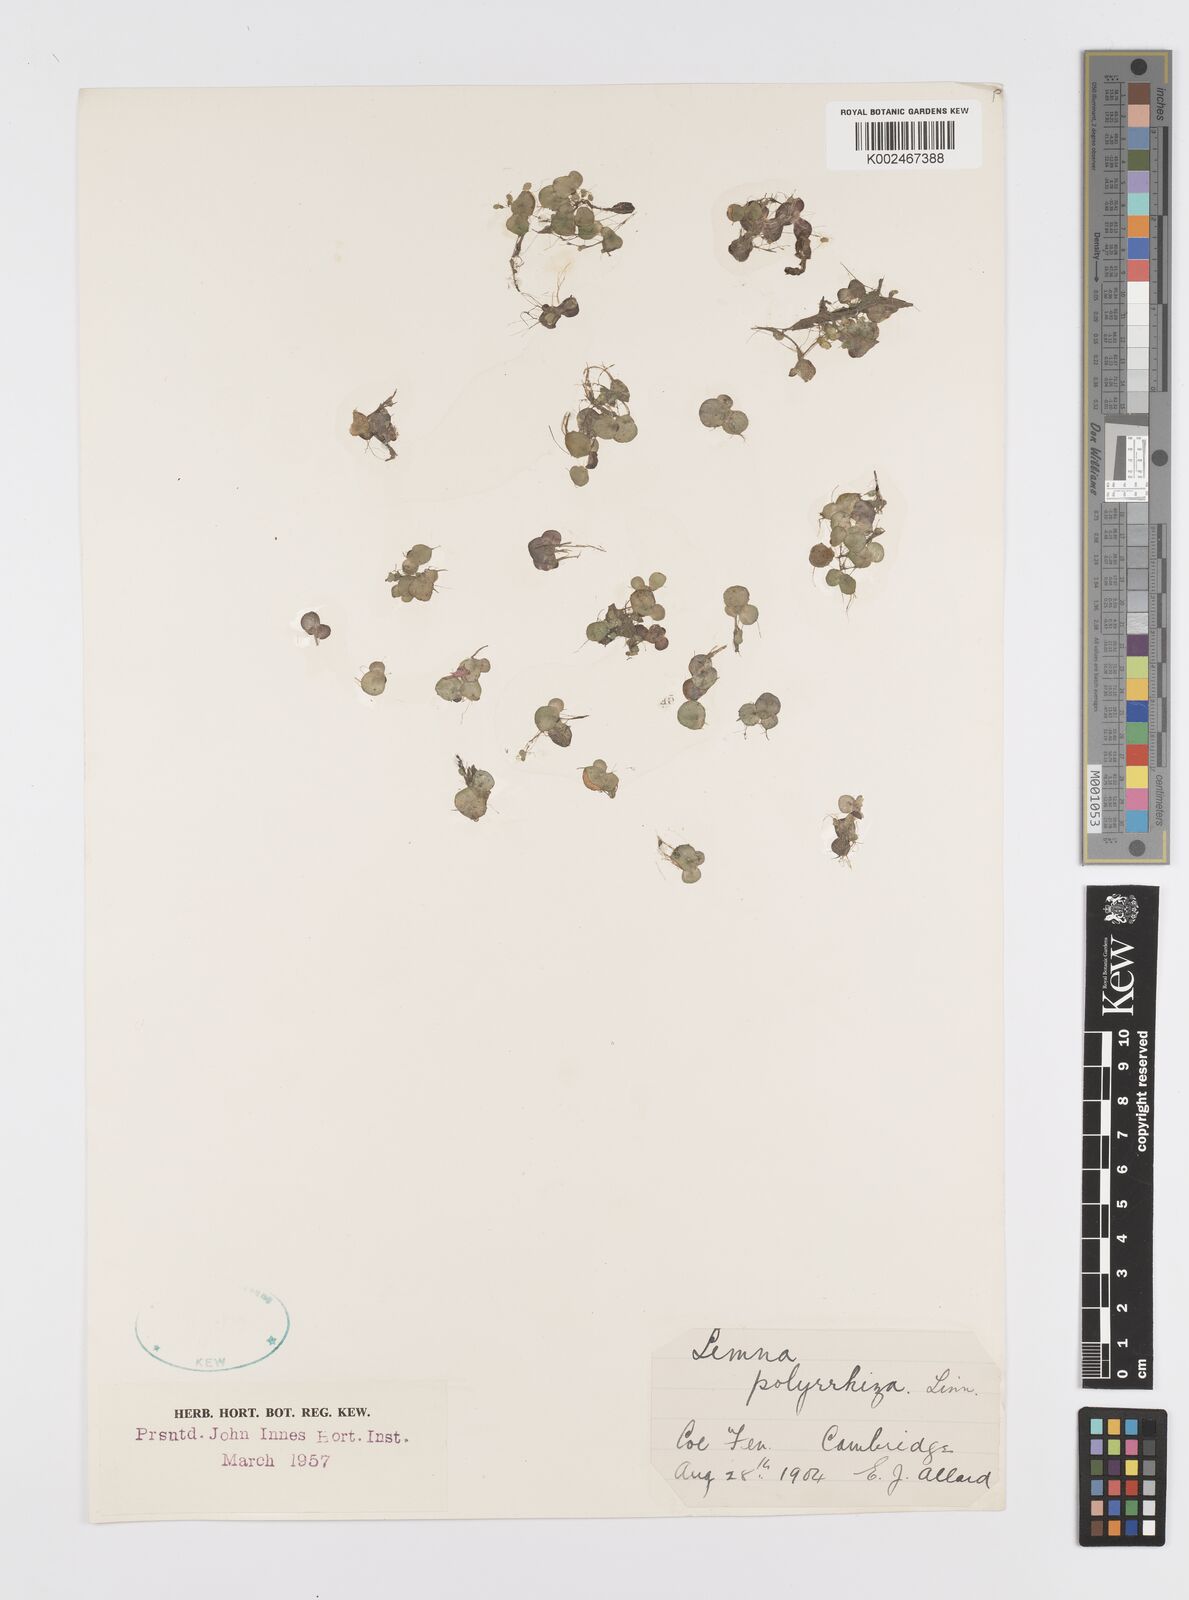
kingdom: Plantae
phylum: Tracheophyta
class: Liliopsida
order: Alismatales
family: Araceae
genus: Spirodela
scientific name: Spirodela polyrhiza
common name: Great duckweed
